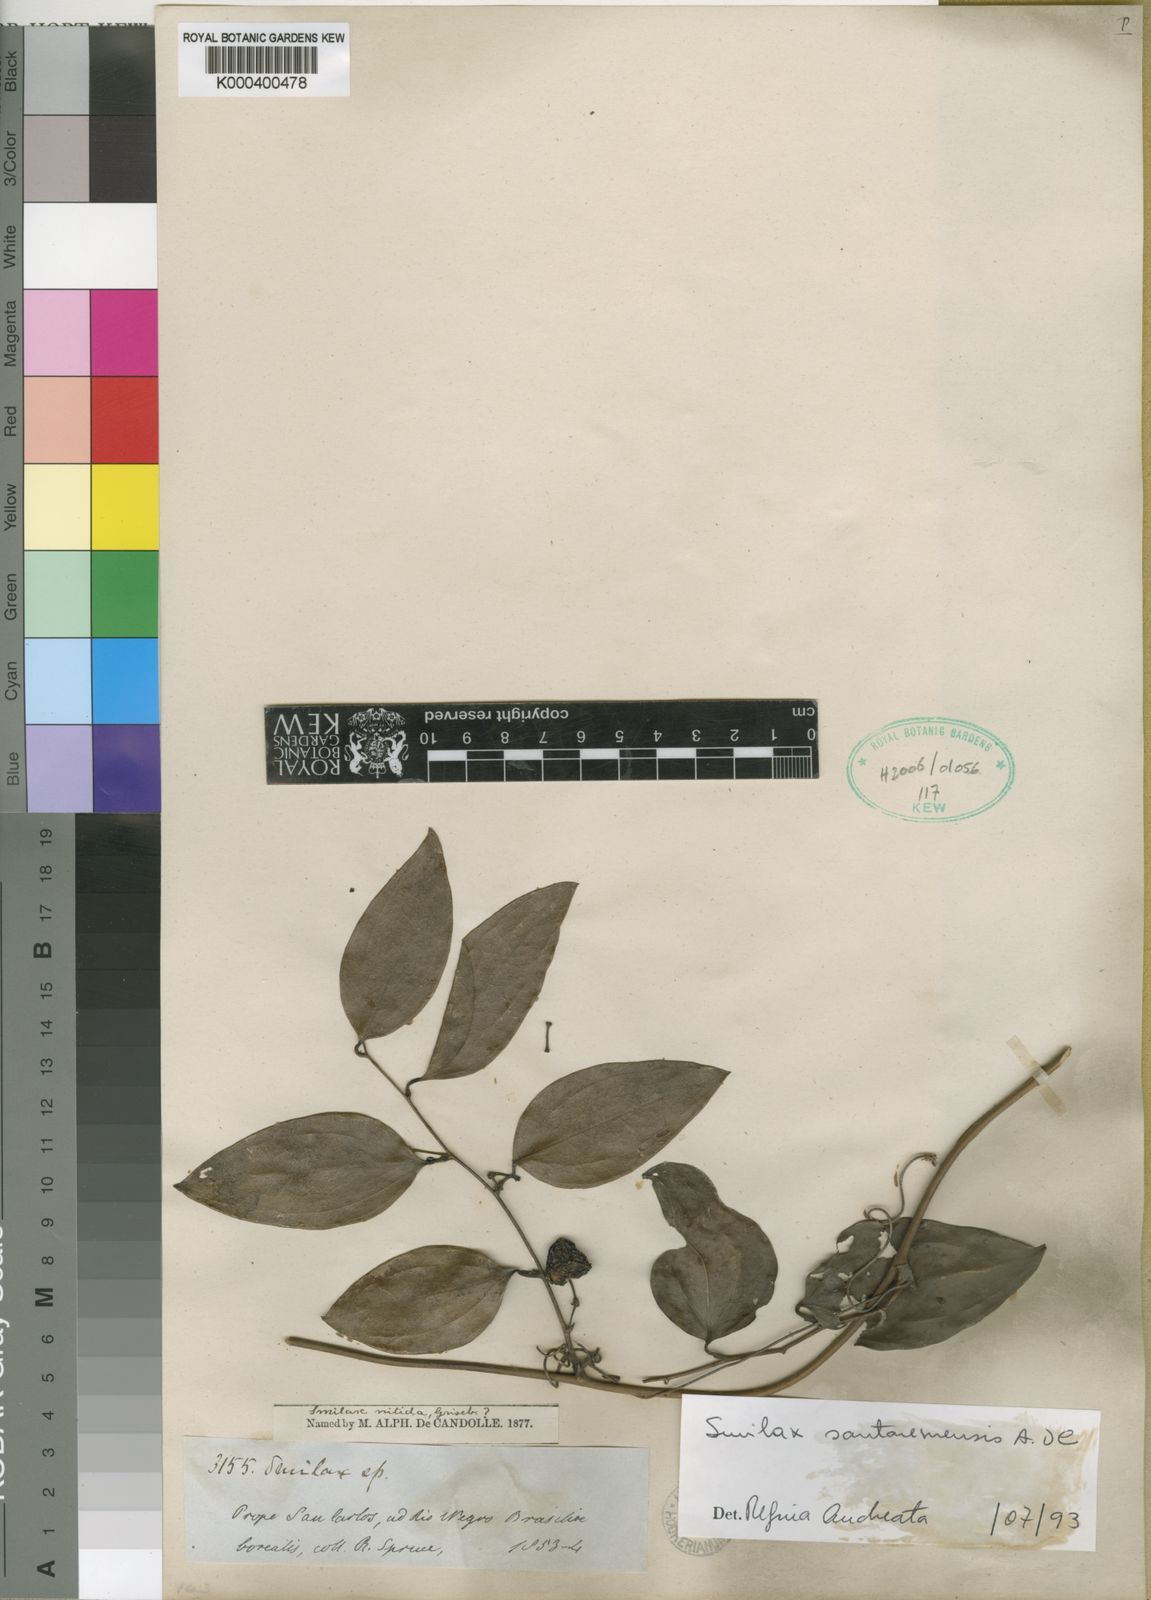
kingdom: Plantae
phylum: Tracheophyta
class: Liliopsida
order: Liliales
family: Smilacaceae
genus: Smilax
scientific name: Smilax santaremensis
